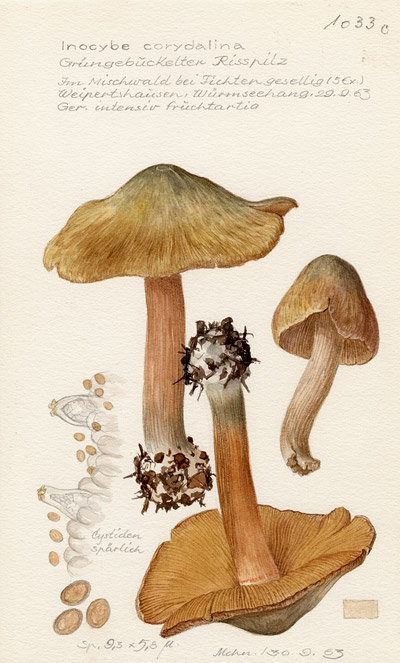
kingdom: Fungi
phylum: Basidiomycota
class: Agaricomycetes
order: Agaricales
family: Inocybaceae
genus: Inocybe
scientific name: Inocybe corydalina
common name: Greenflush fibrecap
